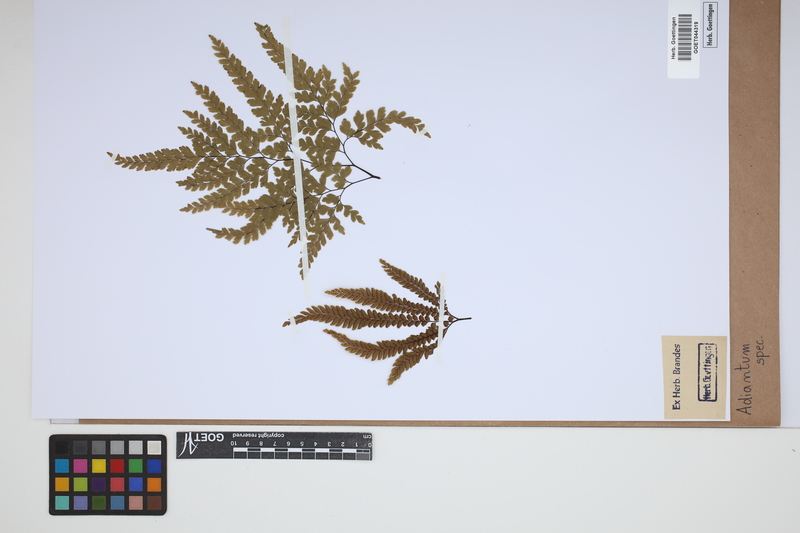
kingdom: Plantae
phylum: Tracheophyta
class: Polypodiopsida
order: Polypodiales
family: Pteridaceae
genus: Adiantum
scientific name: Adiantum
